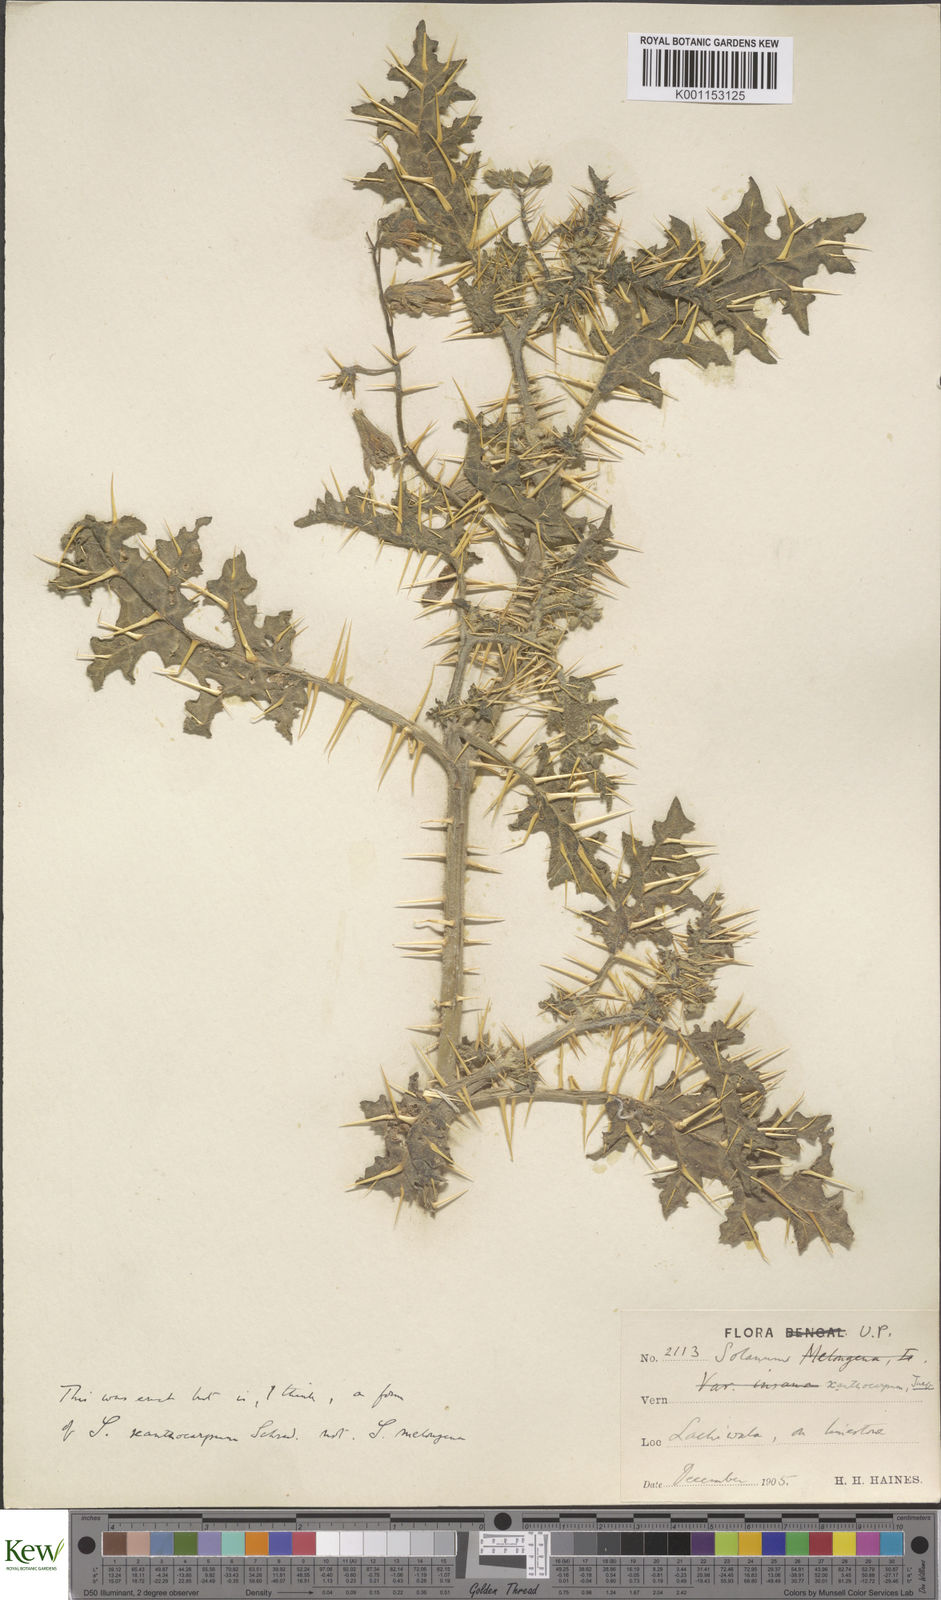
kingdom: Plantae
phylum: Tracheophyta
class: Magnoliopsida
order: Solanales
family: Solanaceae
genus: Solanum
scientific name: Solanum virginianum
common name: Surattense nightshade
